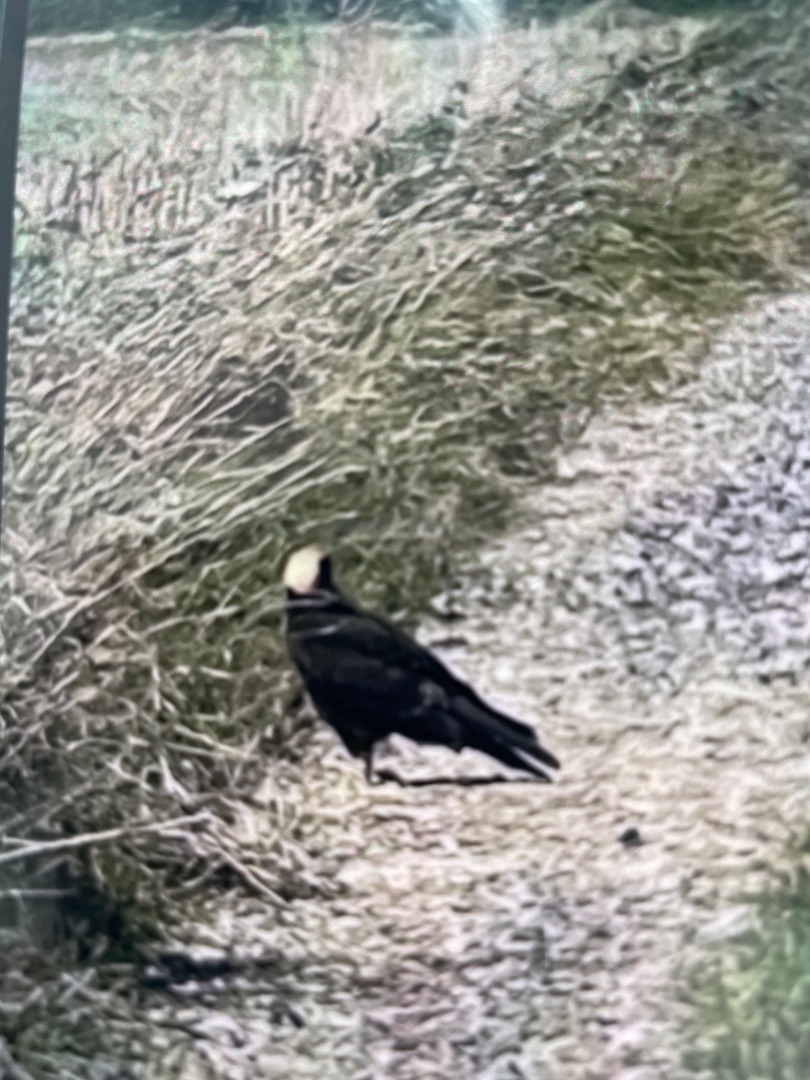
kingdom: Animalia
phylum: Chordata
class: Aves
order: Accipitriformes
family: Accipitridae
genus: Circus
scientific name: Circus aeruginosus
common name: Rørhøg
